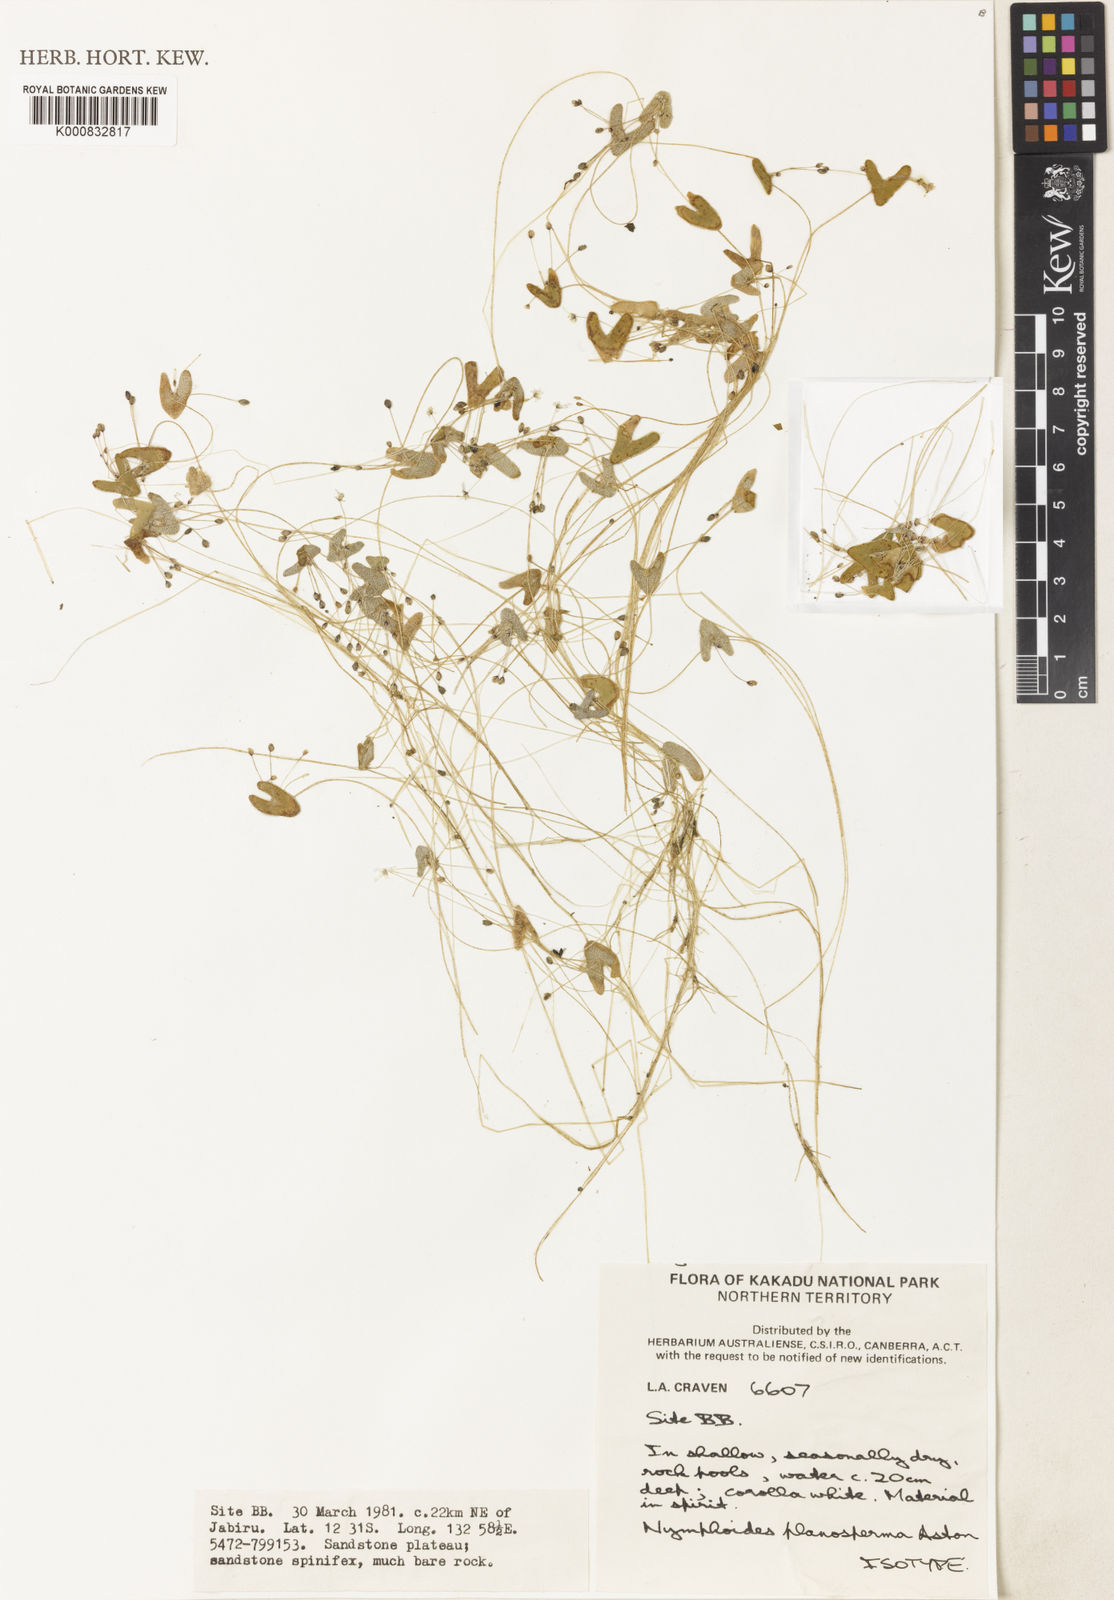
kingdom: Plantae
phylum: Tracheophyta
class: Magnoliopsida
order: Asterales
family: Menyanthaceae
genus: Nymphoides
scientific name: Nymphoides planosperma
